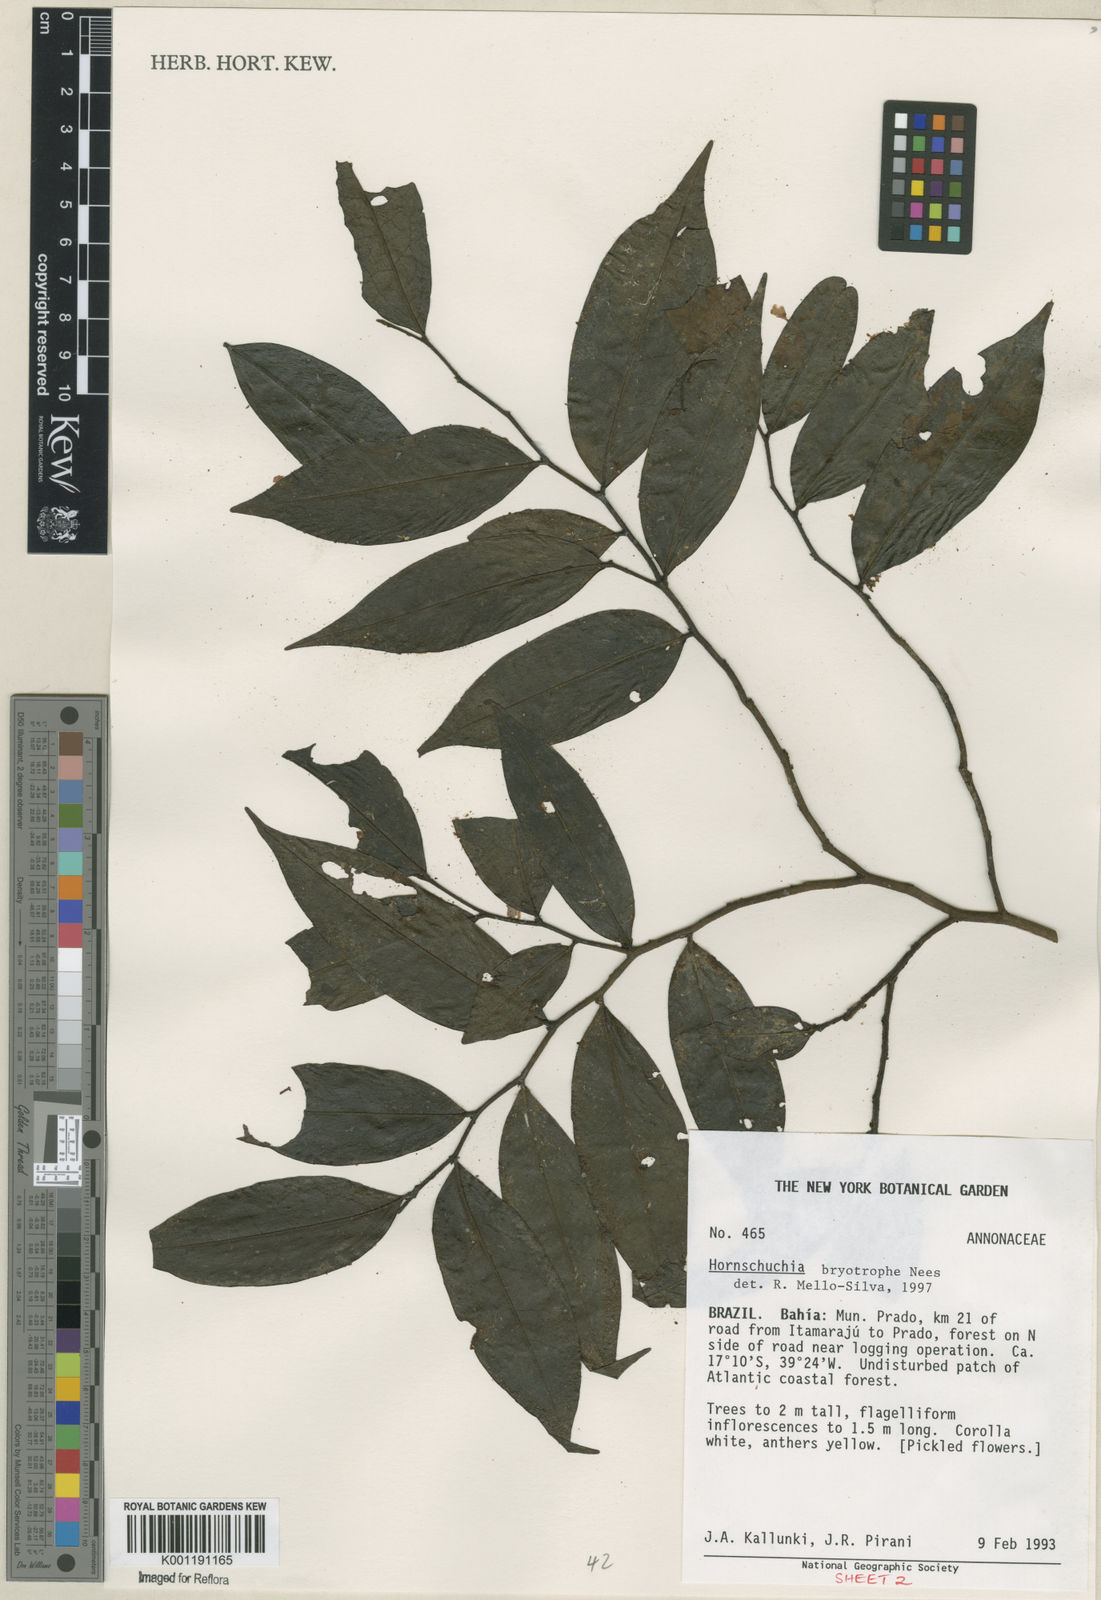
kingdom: Plantae
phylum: Tracheophyta
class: Magnoliopsida
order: Magnoliales
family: Annonaceae
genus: Hornschuchia
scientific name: Hornschuchia bryotrophe
